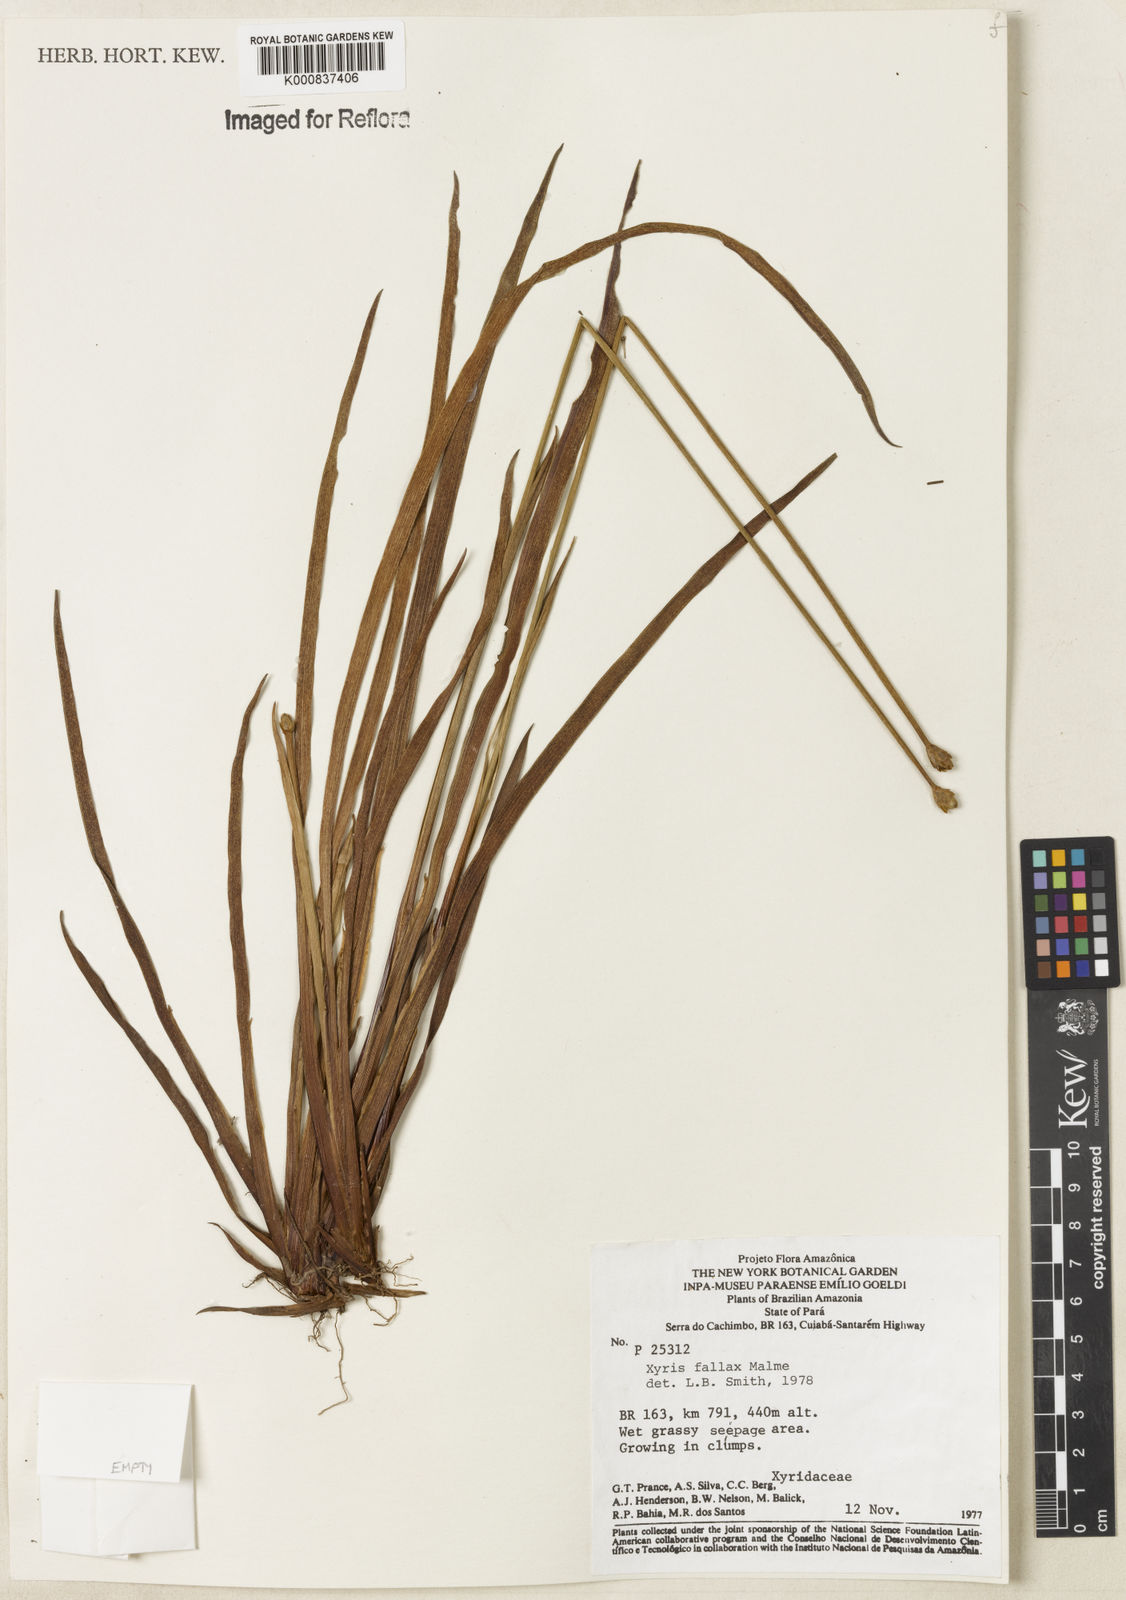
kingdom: Plantae
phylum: Tracheophyta
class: Liliopsida
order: Poales
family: Xyridaceae
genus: Xyris
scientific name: Xyris fallax
